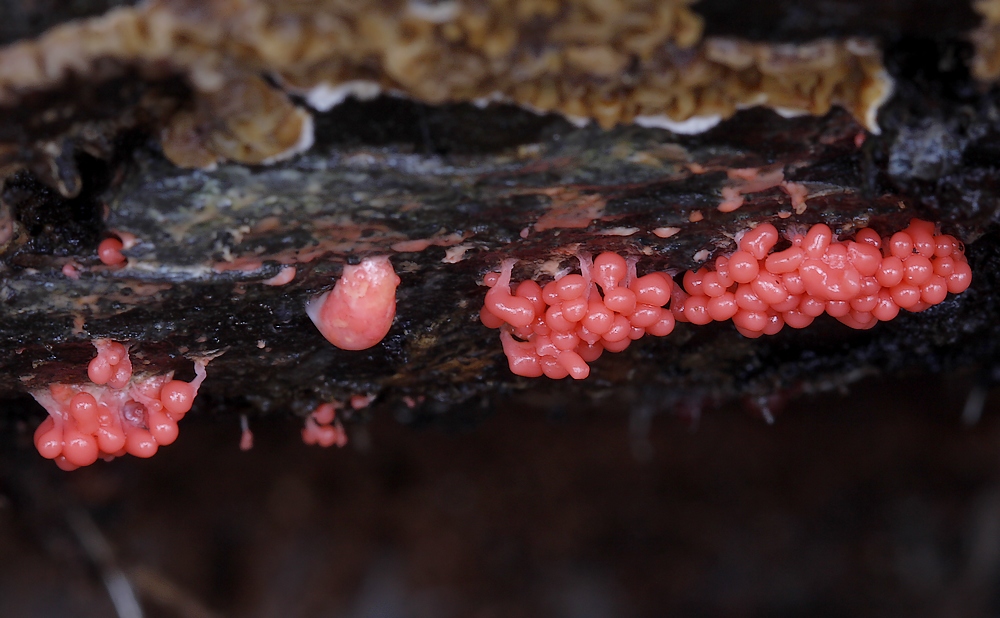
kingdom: Protozoa
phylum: Mycetozoa
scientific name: Mycetozoa
